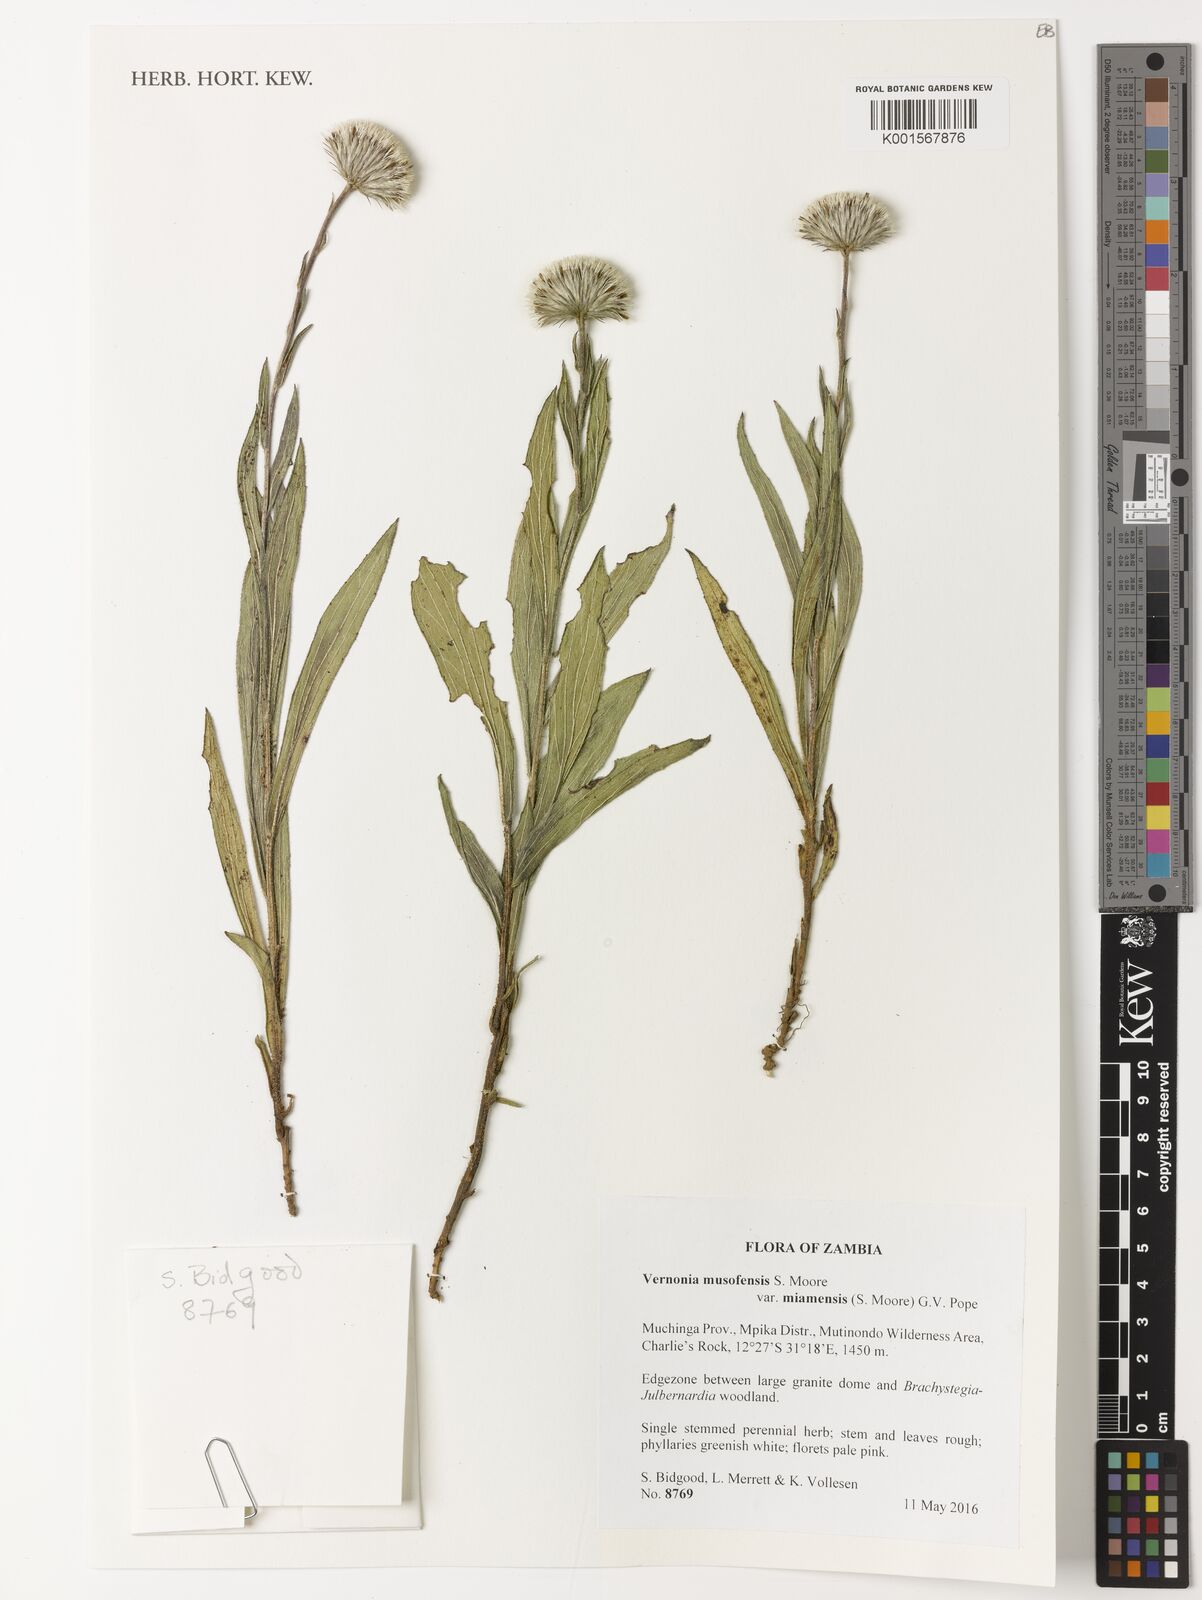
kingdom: Plantae
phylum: Tracheophyta
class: Magnoliopsida
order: Asterales
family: Asteraceae
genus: Vernoniastrum
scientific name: Vernoniastrum musofense
